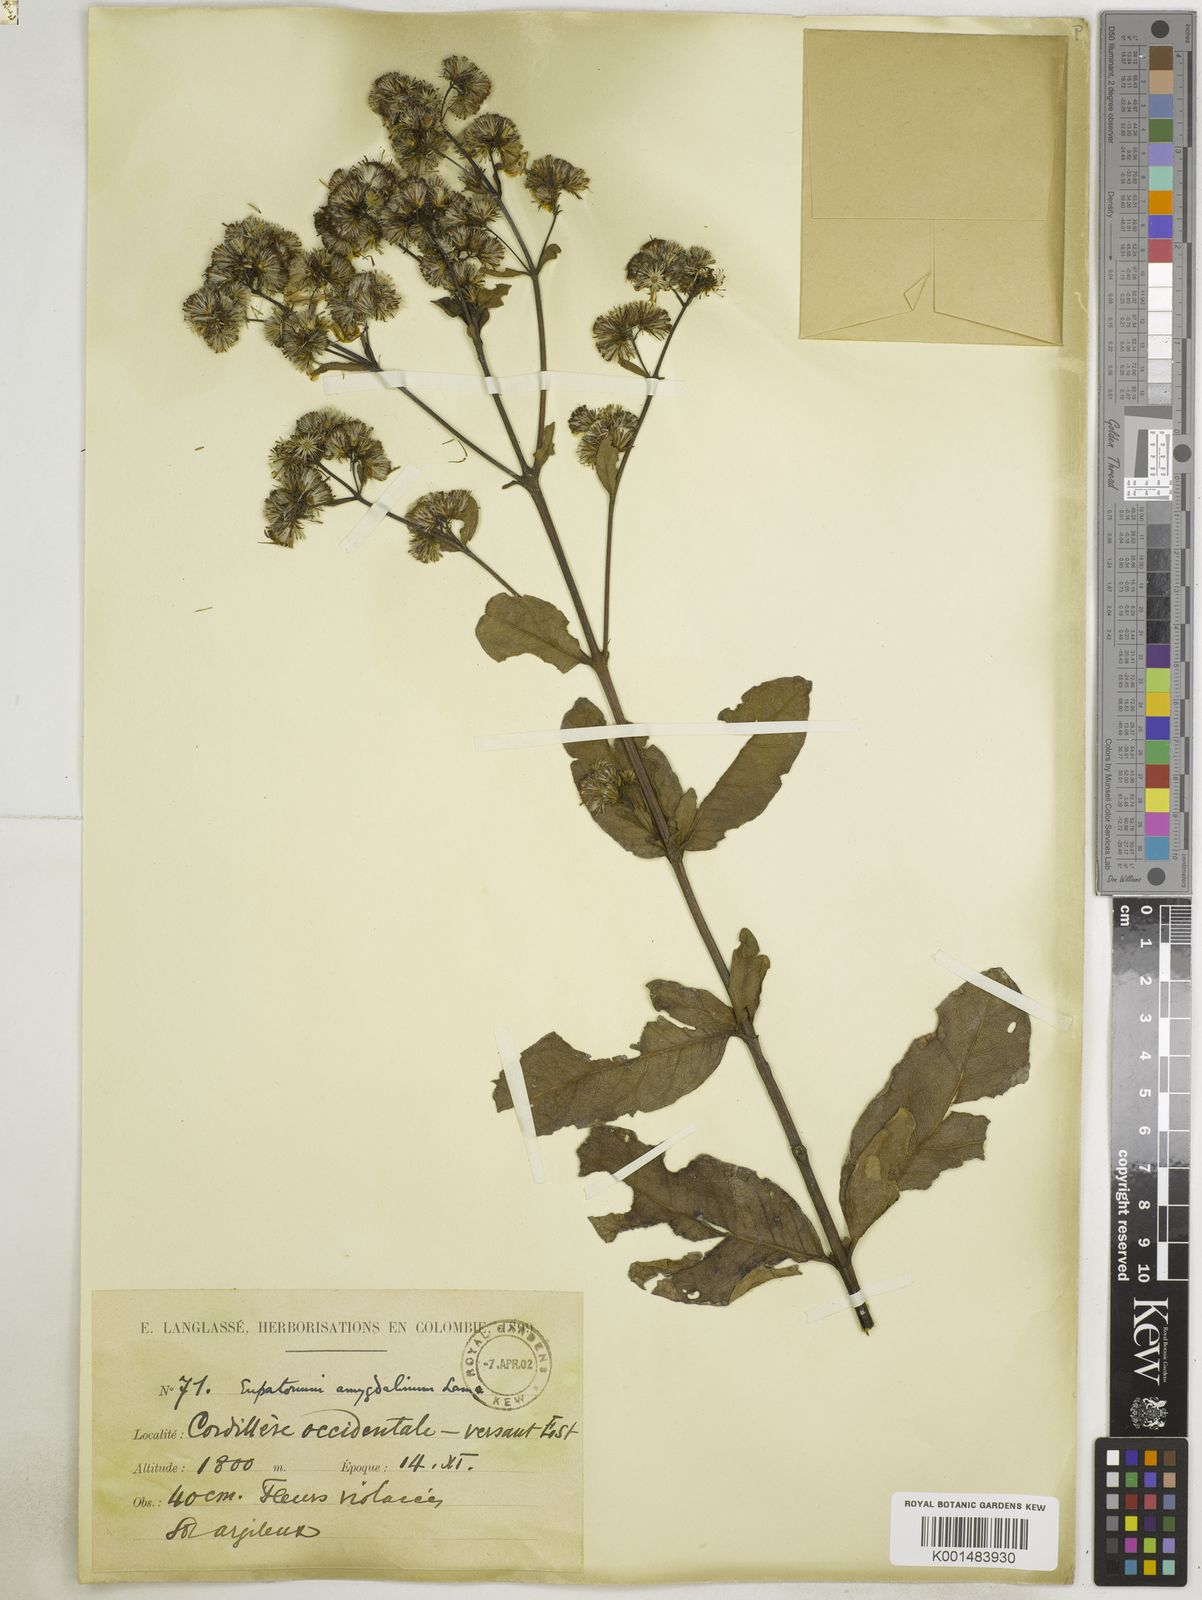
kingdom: Plantae
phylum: Tracheophyta
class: Magnoliopsida
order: Asterales
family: Asteraceae
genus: Ayapana
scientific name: Ayapana amygdalina
